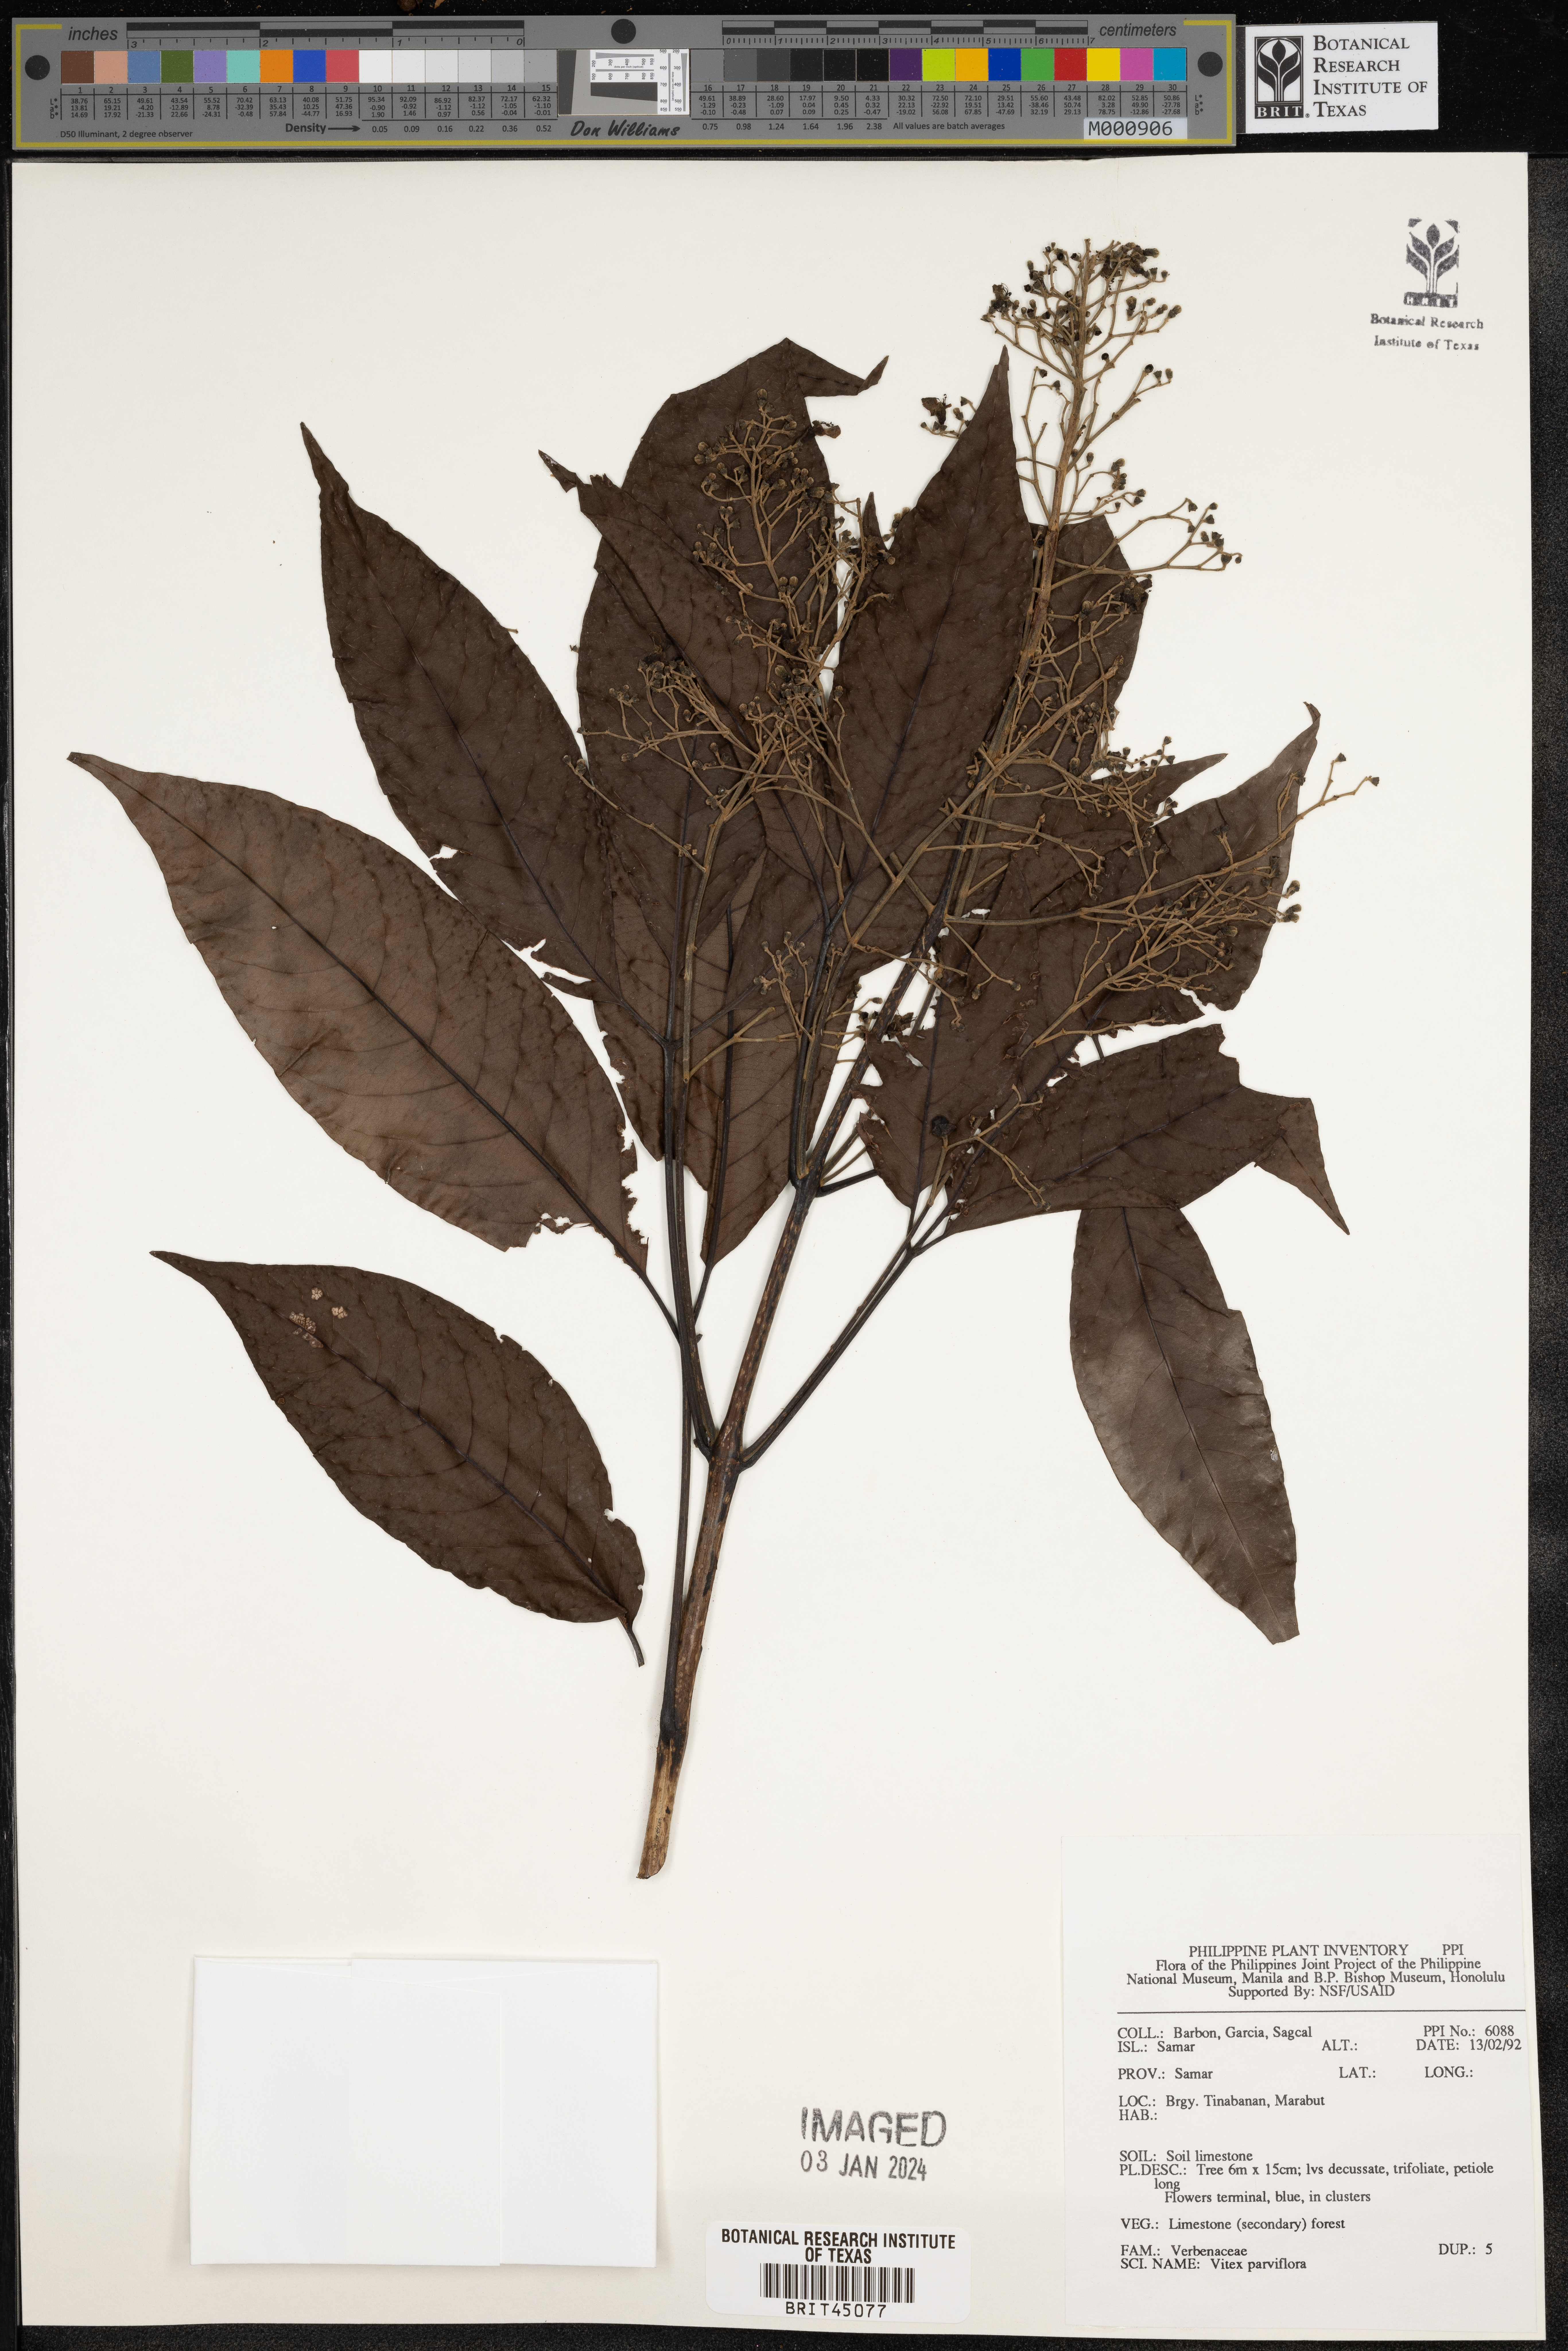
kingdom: Plantae
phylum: Tracheophyta
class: Magnoliopsida
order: Lamiales
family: Lamiaceae
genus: Vitex
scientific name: Vitex parviflora
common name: Smallflower chastetree
